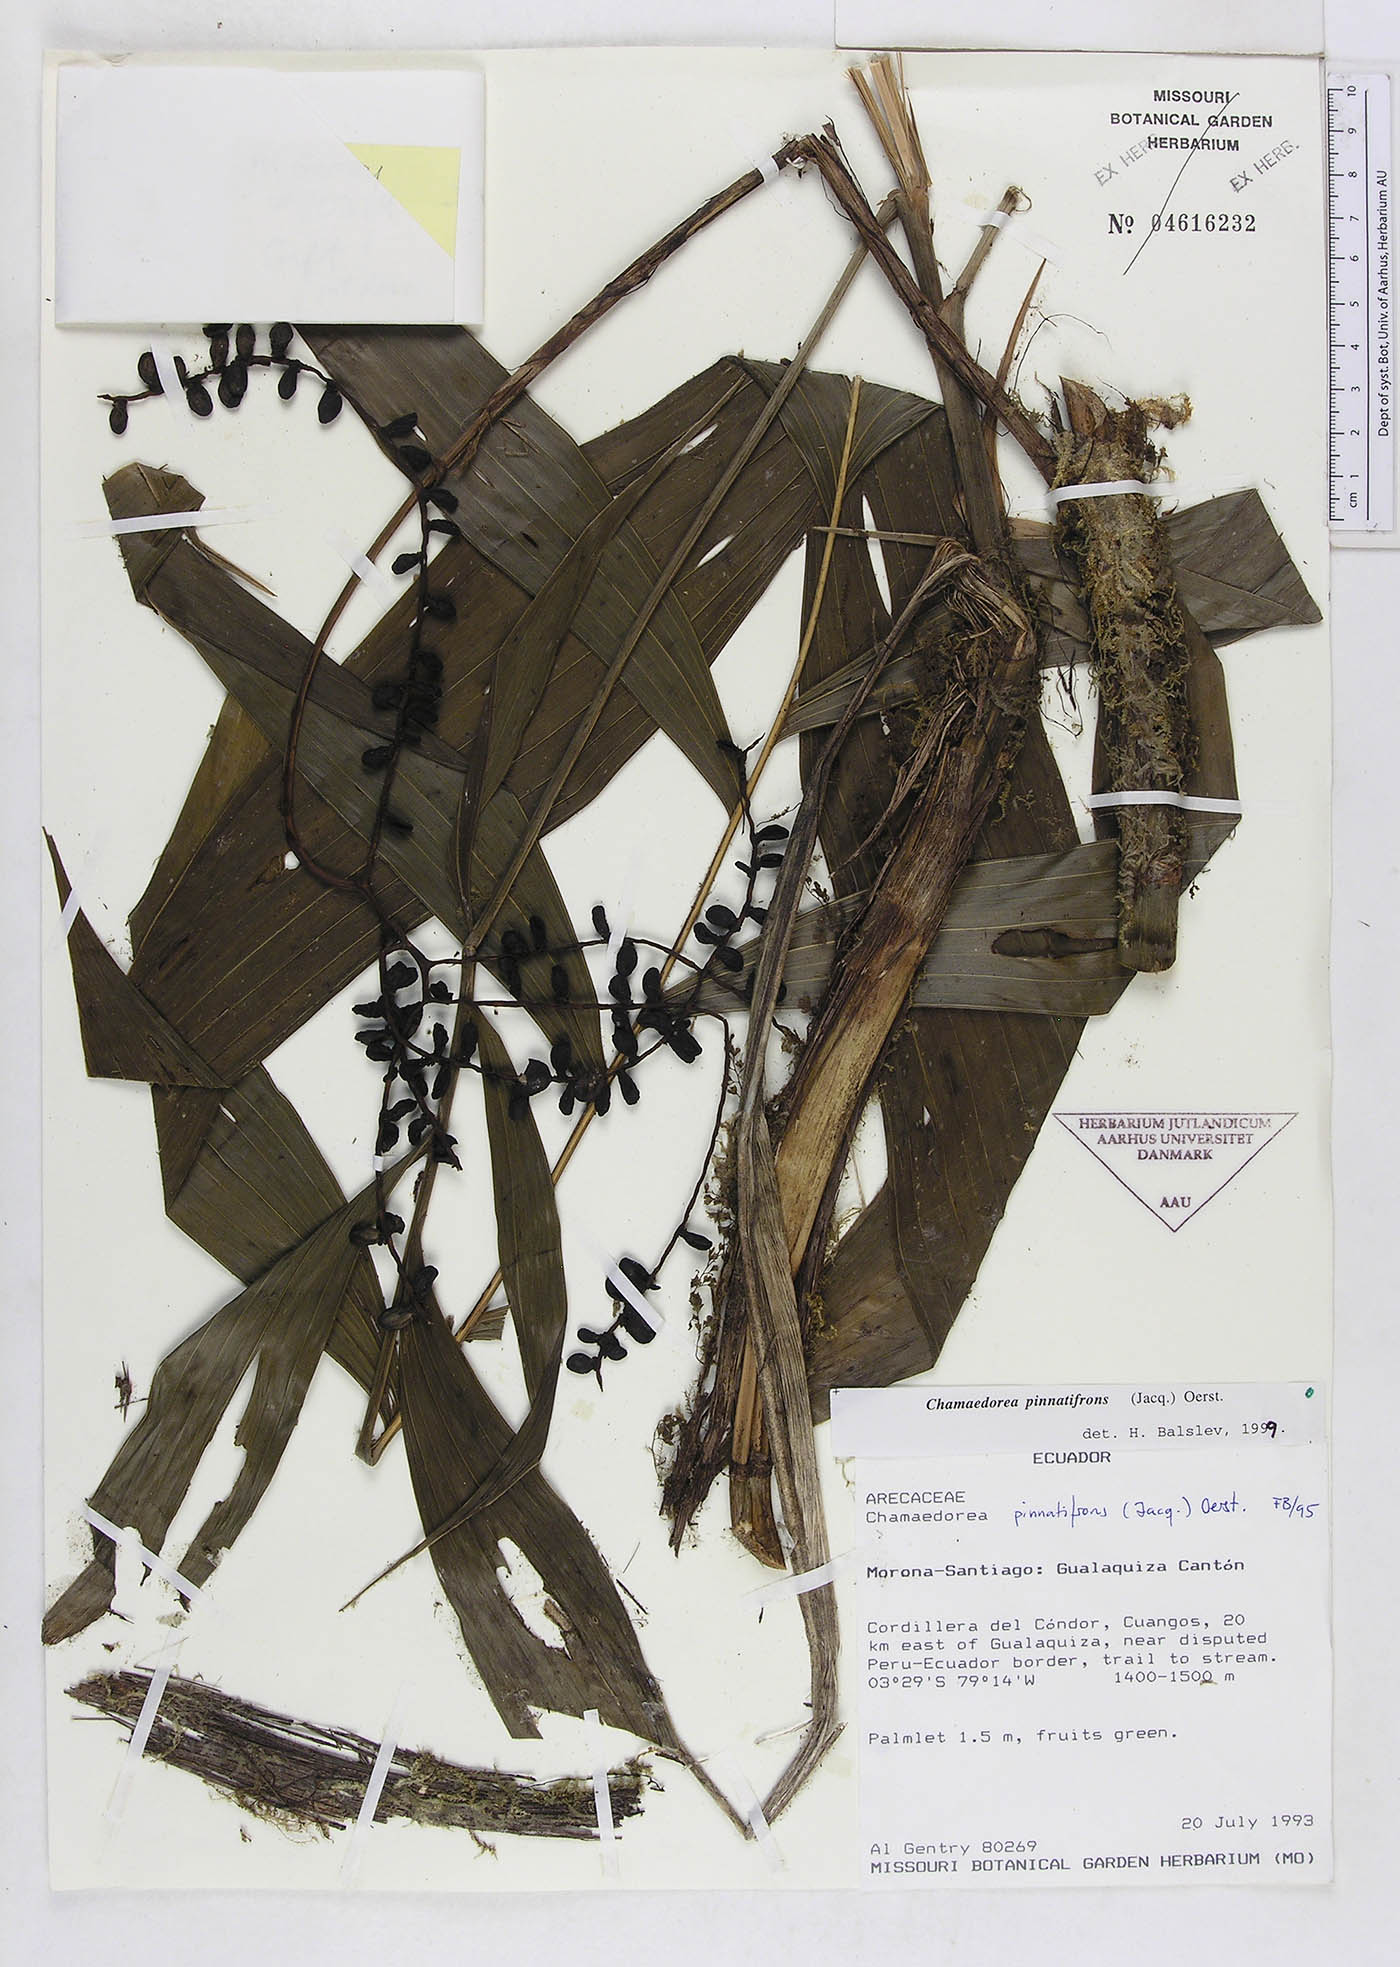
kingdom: Plantae
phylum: Tracheophyta
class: Liliopsida
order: Arecales
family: Arecaceae
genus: Chamaedorea
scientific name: Chamaedorea pinnatifrons
